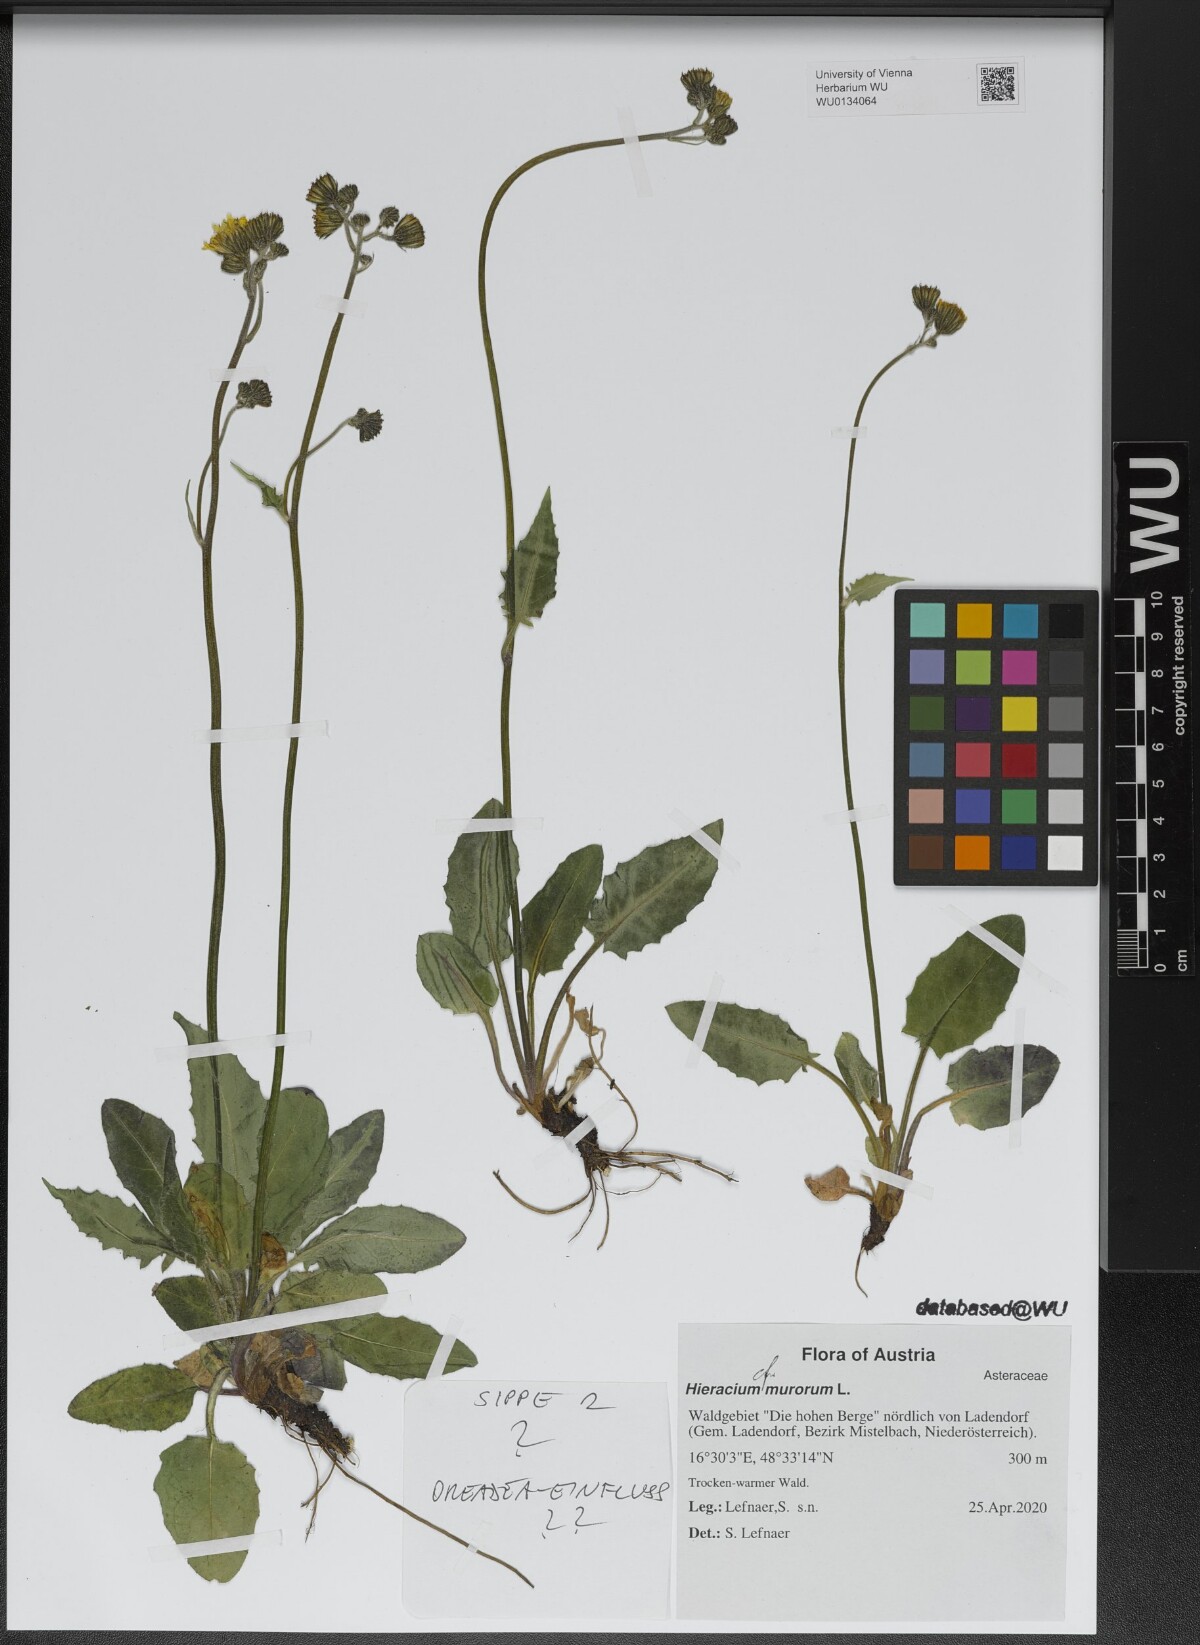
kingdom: Plantae
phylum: Tracheophyta
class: Magnoliopsida
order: Asterales
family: Asteraceae
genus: Hieracium
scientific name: Hieracium murorum
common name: Wall hawkweed
